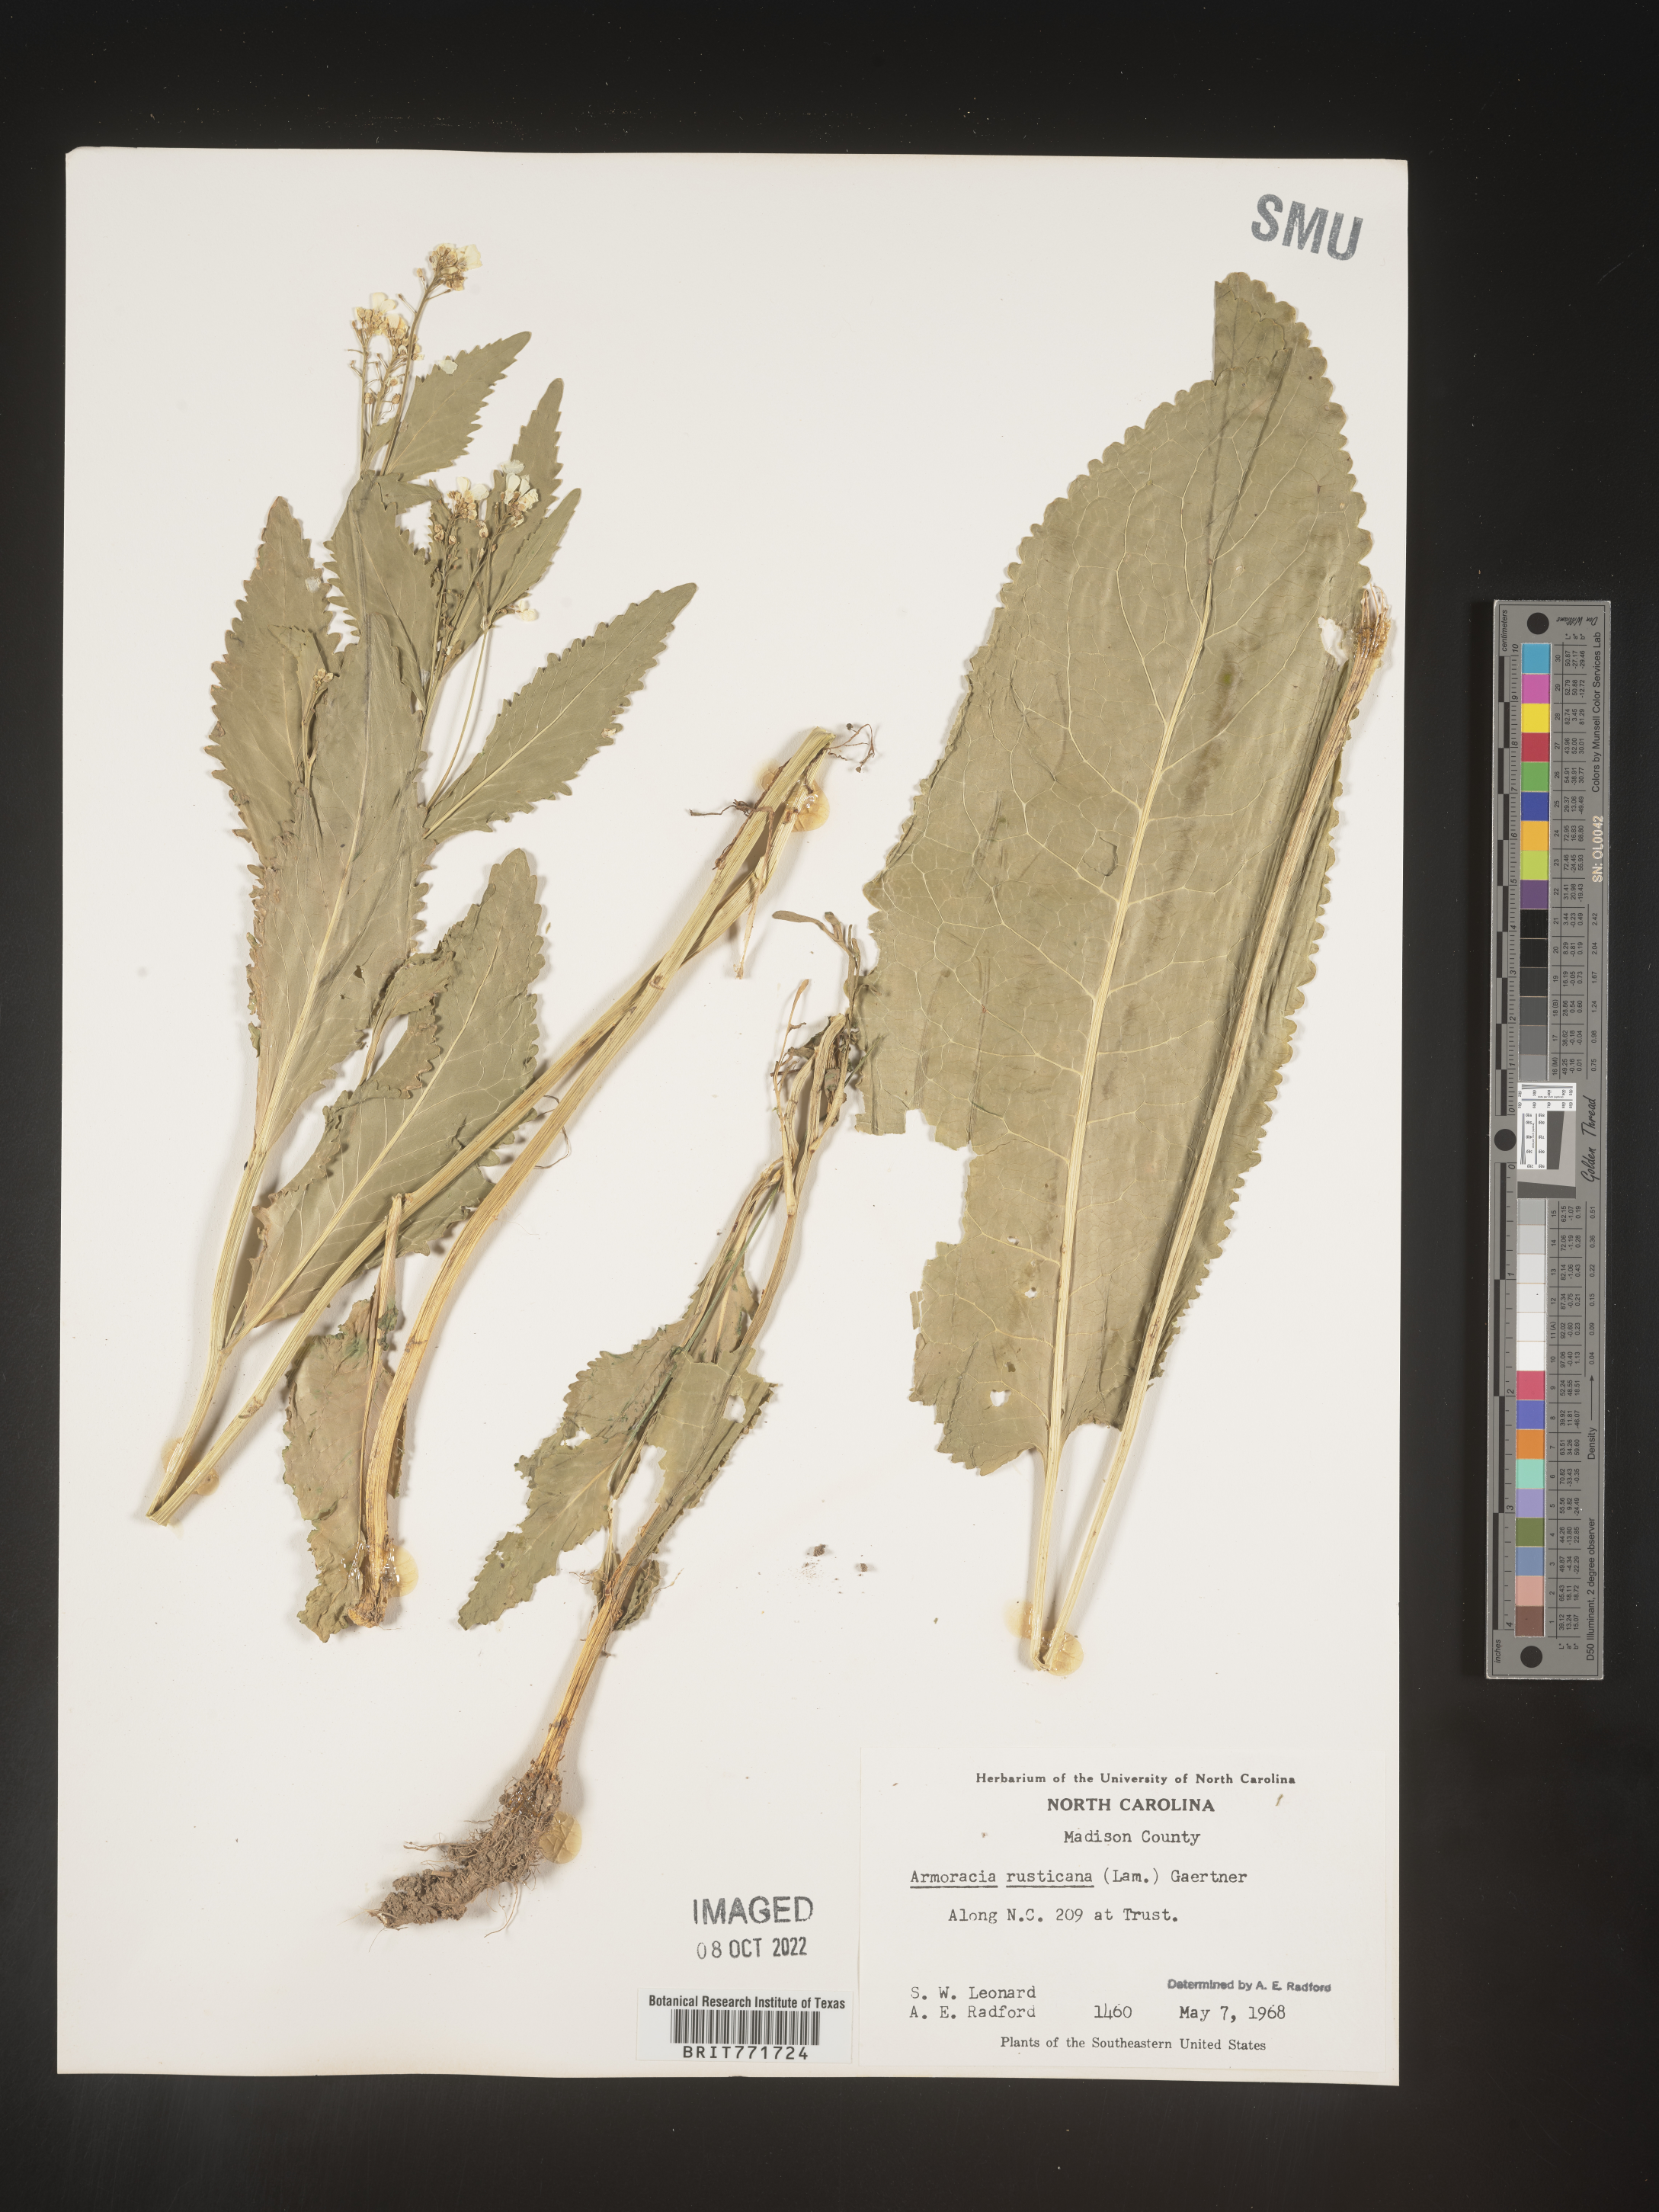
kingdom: Plantae
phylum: Tracheophyta
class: Magnoliopsida
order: Brassicales
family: Brassicaceae
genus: Armoracia
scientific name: Armoracia
